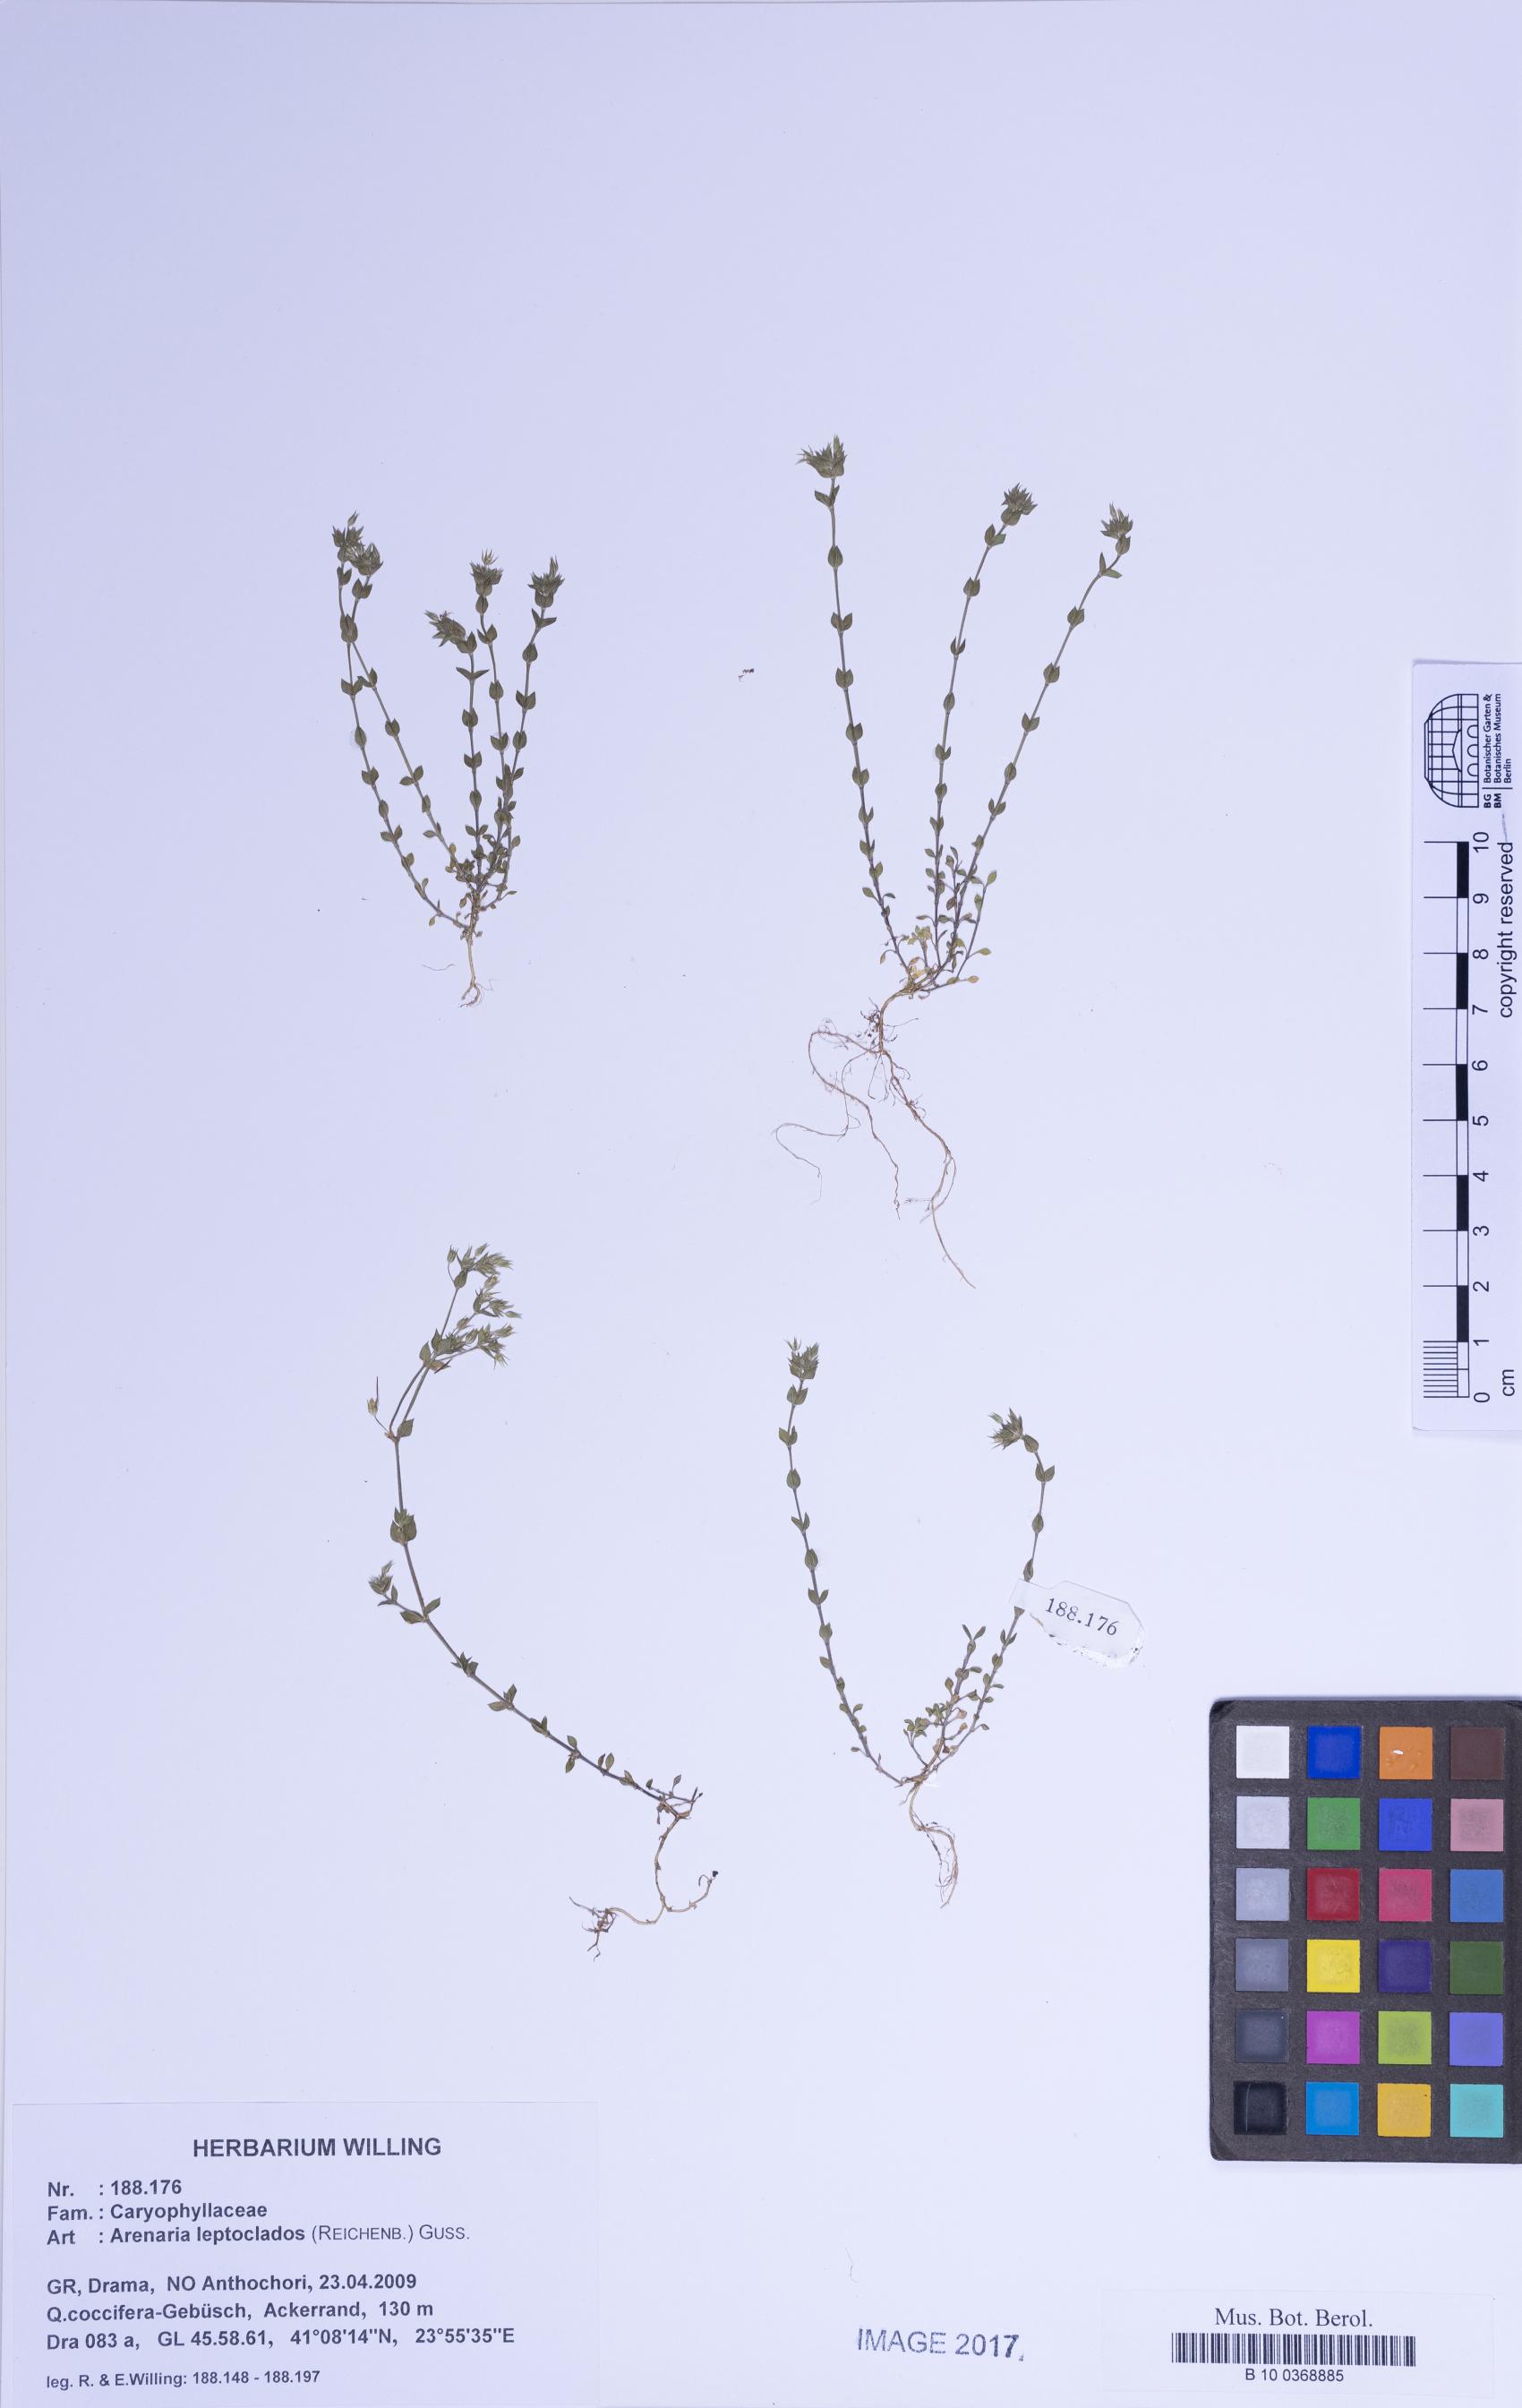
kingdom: Plantae
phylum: Tracheophyta
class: Magnoliopsida
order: Caryophyllales
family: Caryophyllaceae
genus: Arenaria
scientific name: Arenaria leptoclados
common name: Thyme-leaved sandwort
